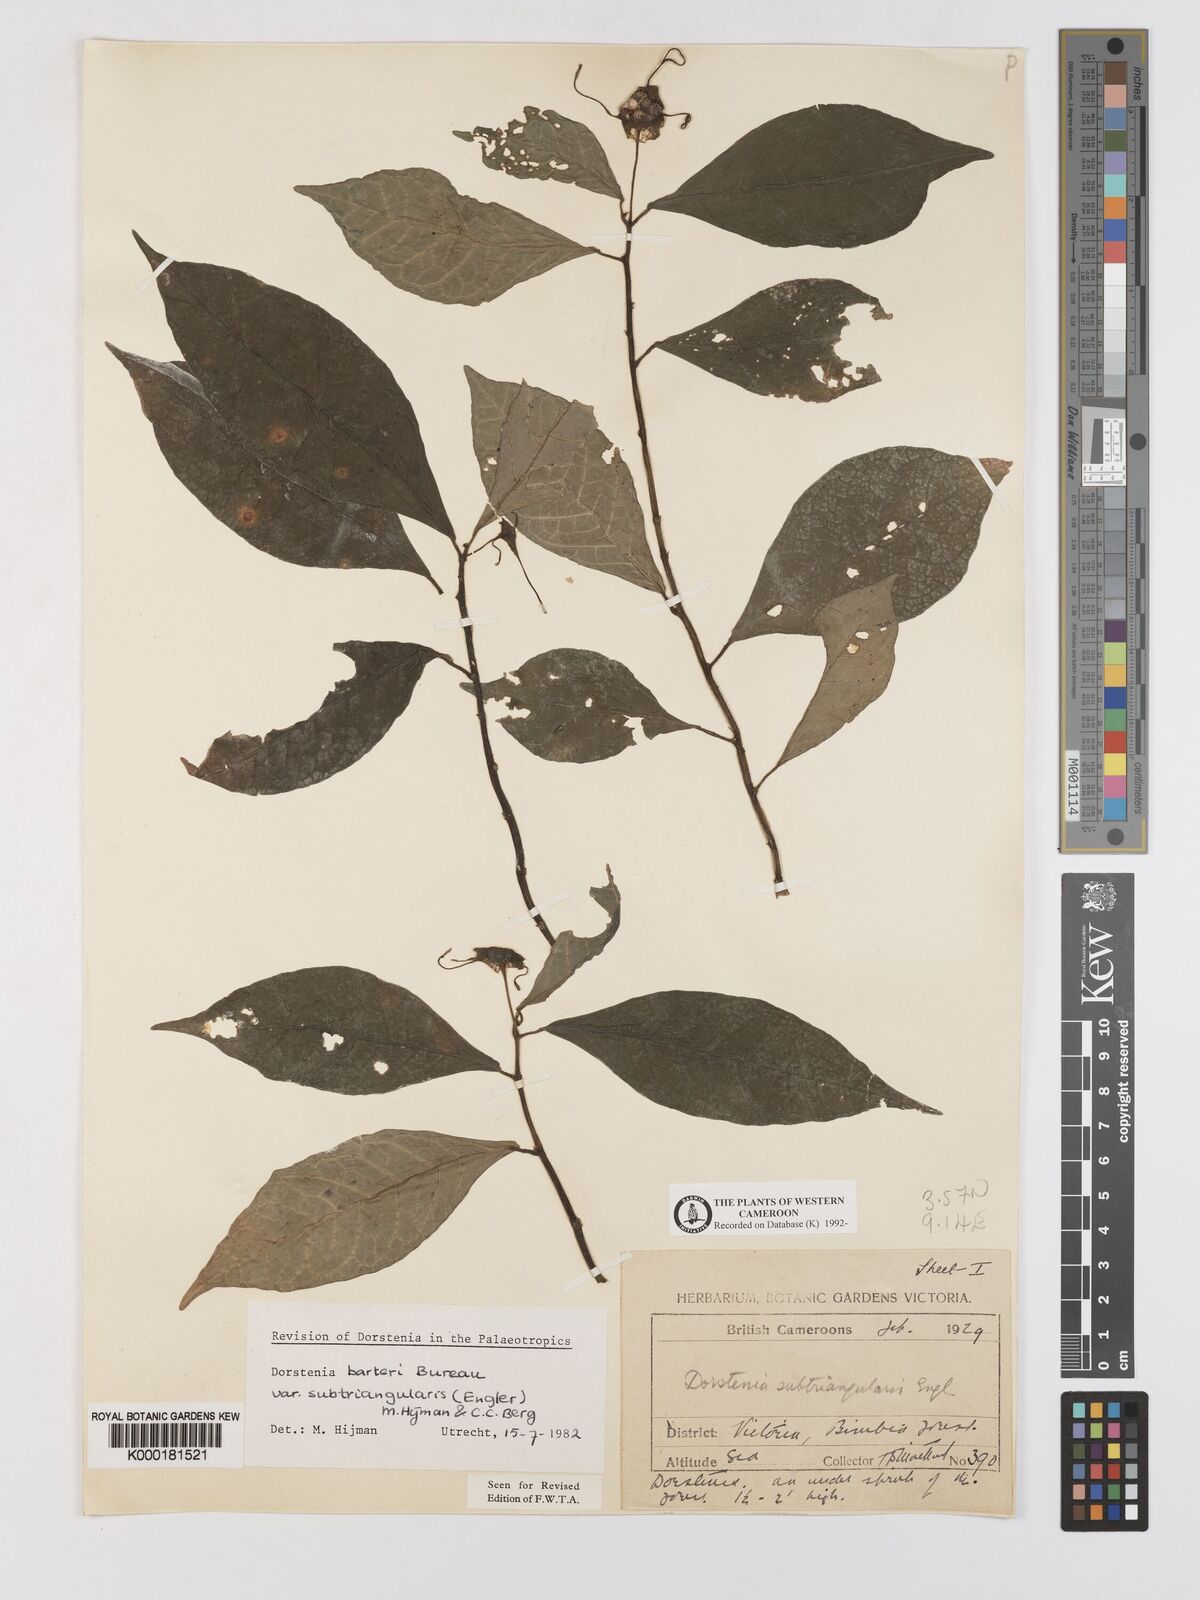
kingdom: Plantae
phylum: Tracheophyta
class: Magnoliopsida
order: Rosales
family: Moraceae
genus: Dorstenia
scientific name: Dorstenia barteri
